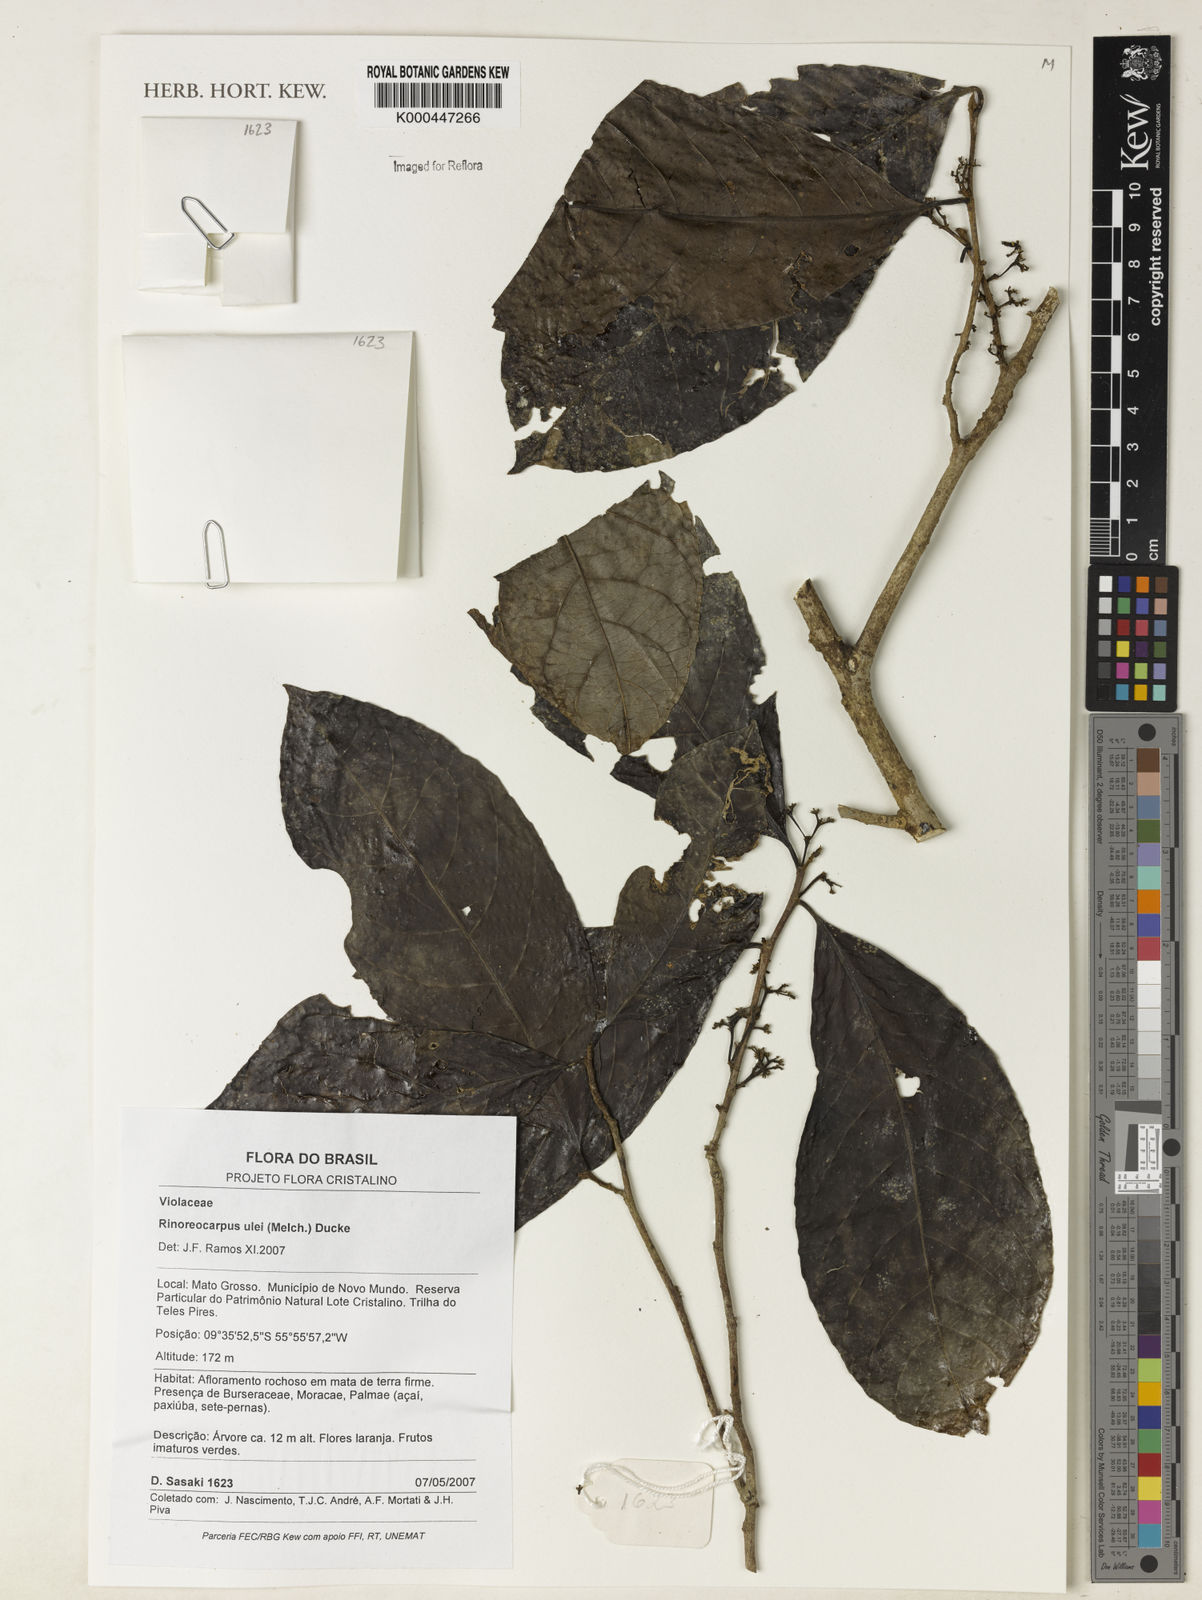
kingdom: Plantae
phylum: Tracheophyta
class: Magnoliopsida
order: Malpighiales
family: Violaceae
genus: Rinoreocarpus
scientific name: Rinoreocarpus ulei
